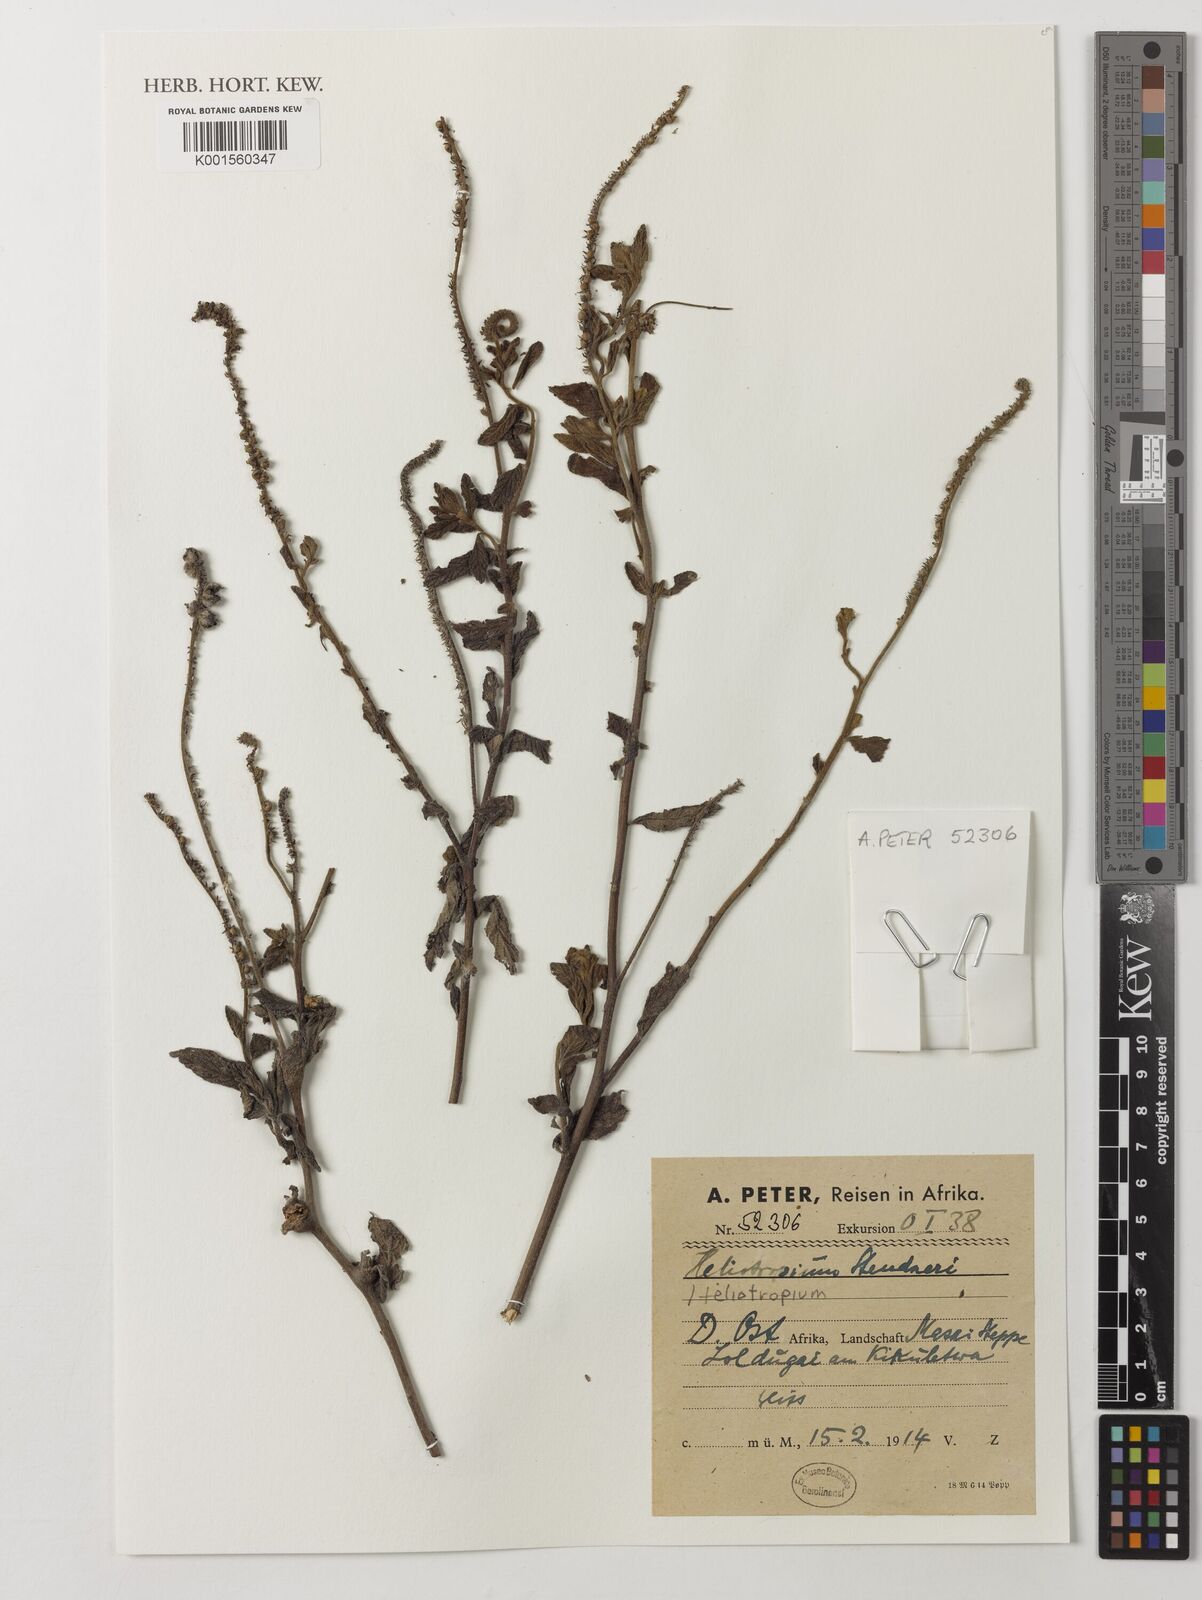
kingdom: Plantae
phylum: Tracheophyta
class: Magnoliopsida
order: Boraginales
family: Heliotropiaceae
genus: Heliotropium
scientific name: Heliotropium steudneri
